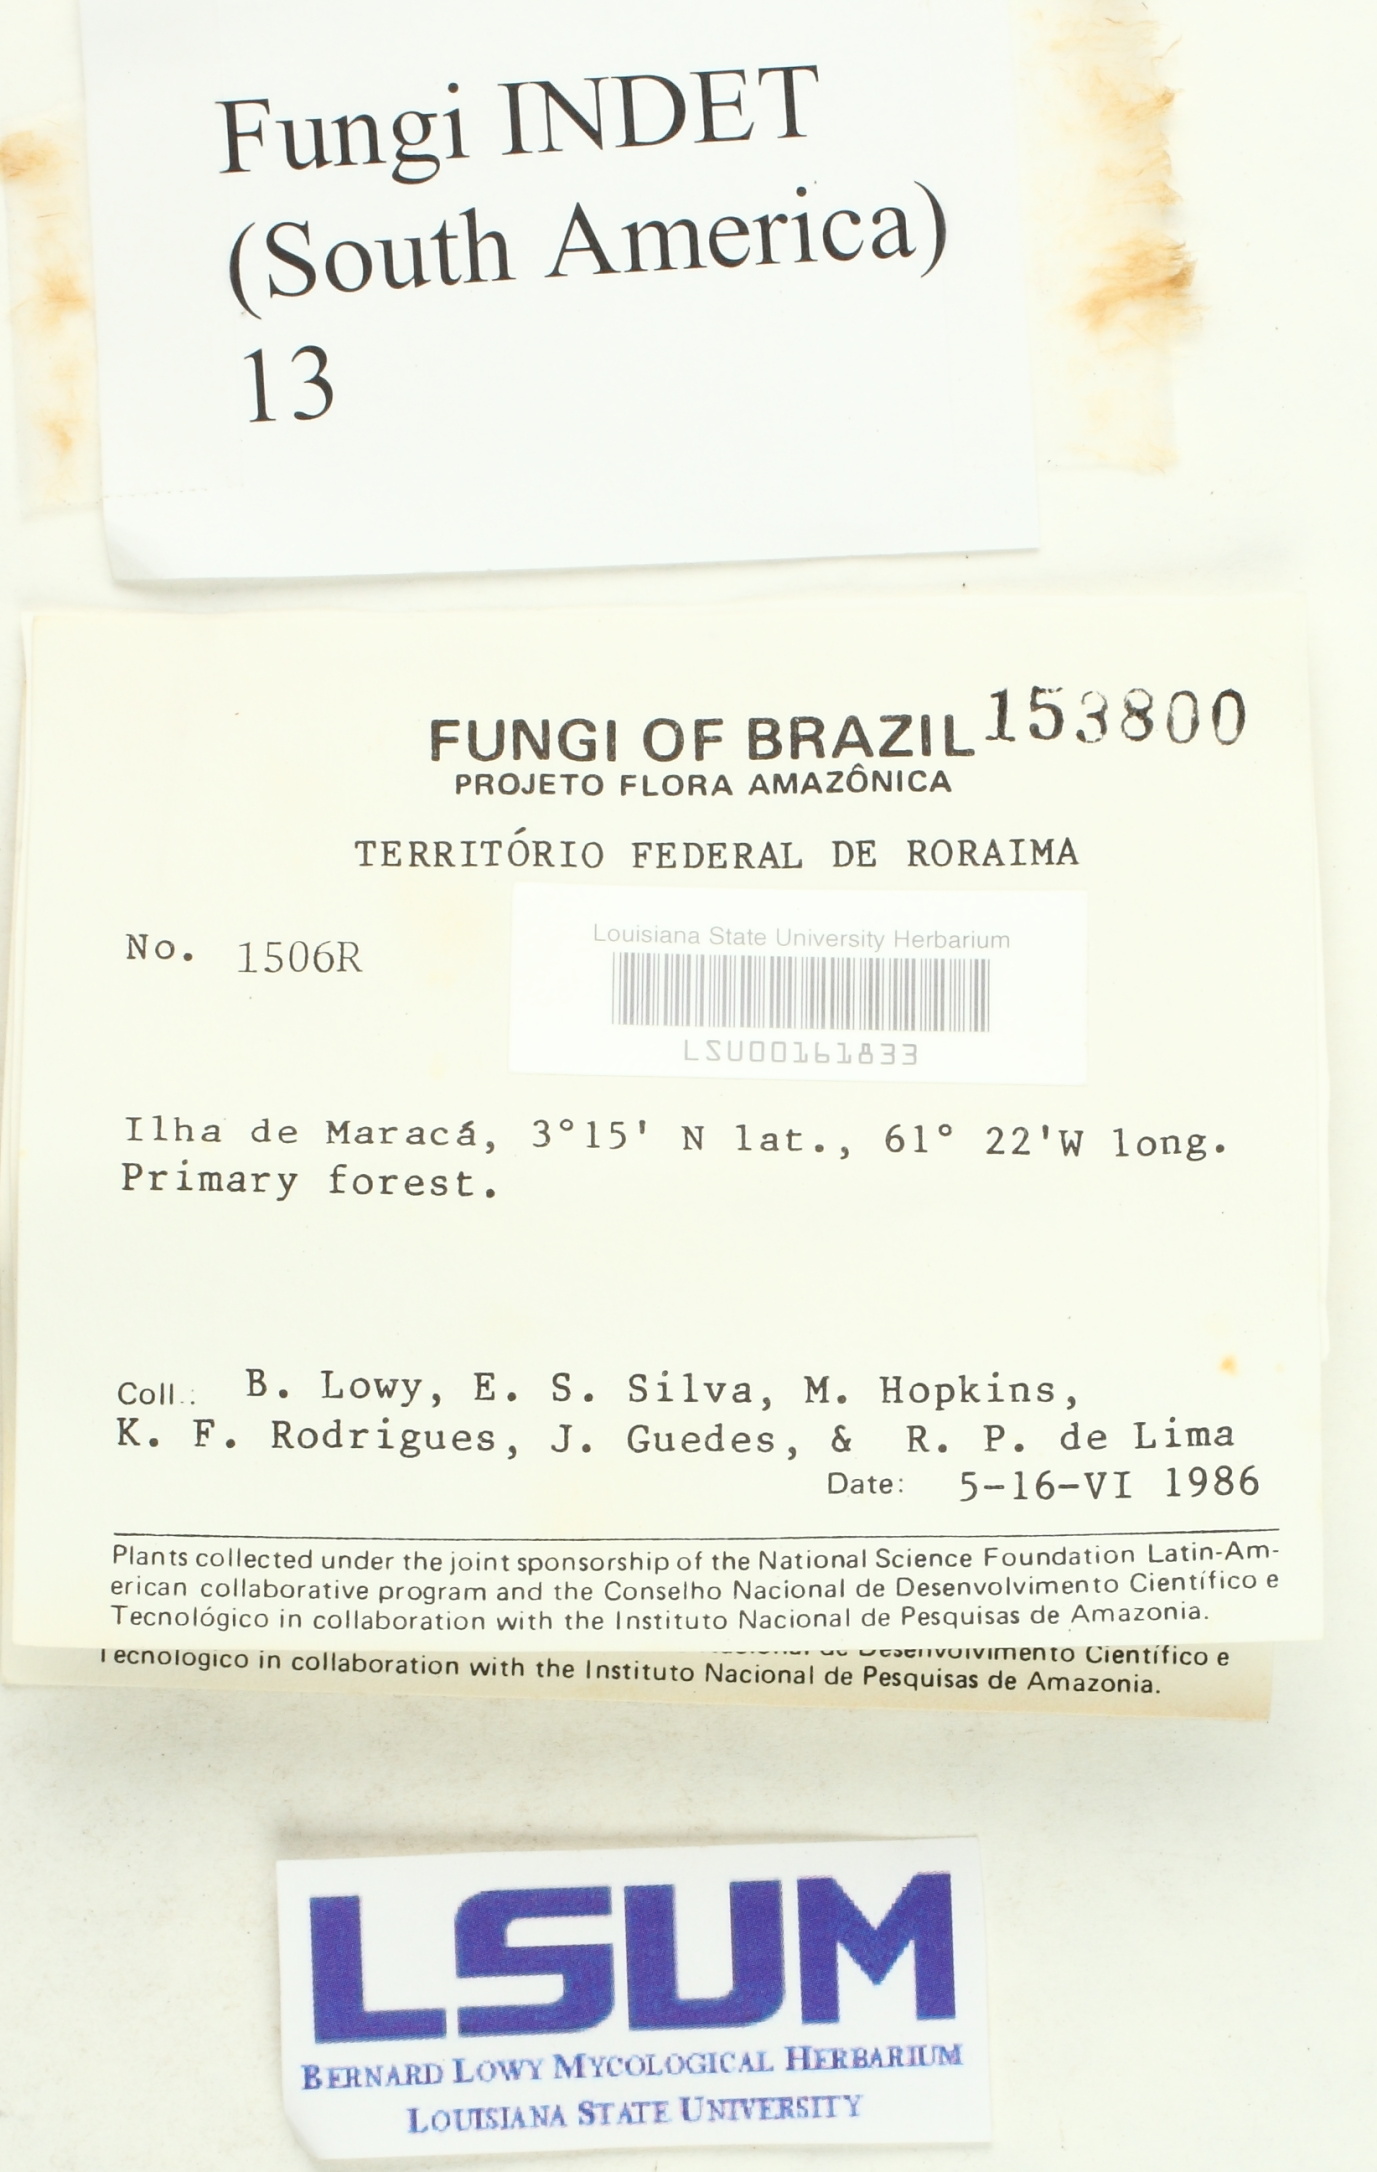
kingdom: Fungi
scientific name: Fungi
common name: Fungi
